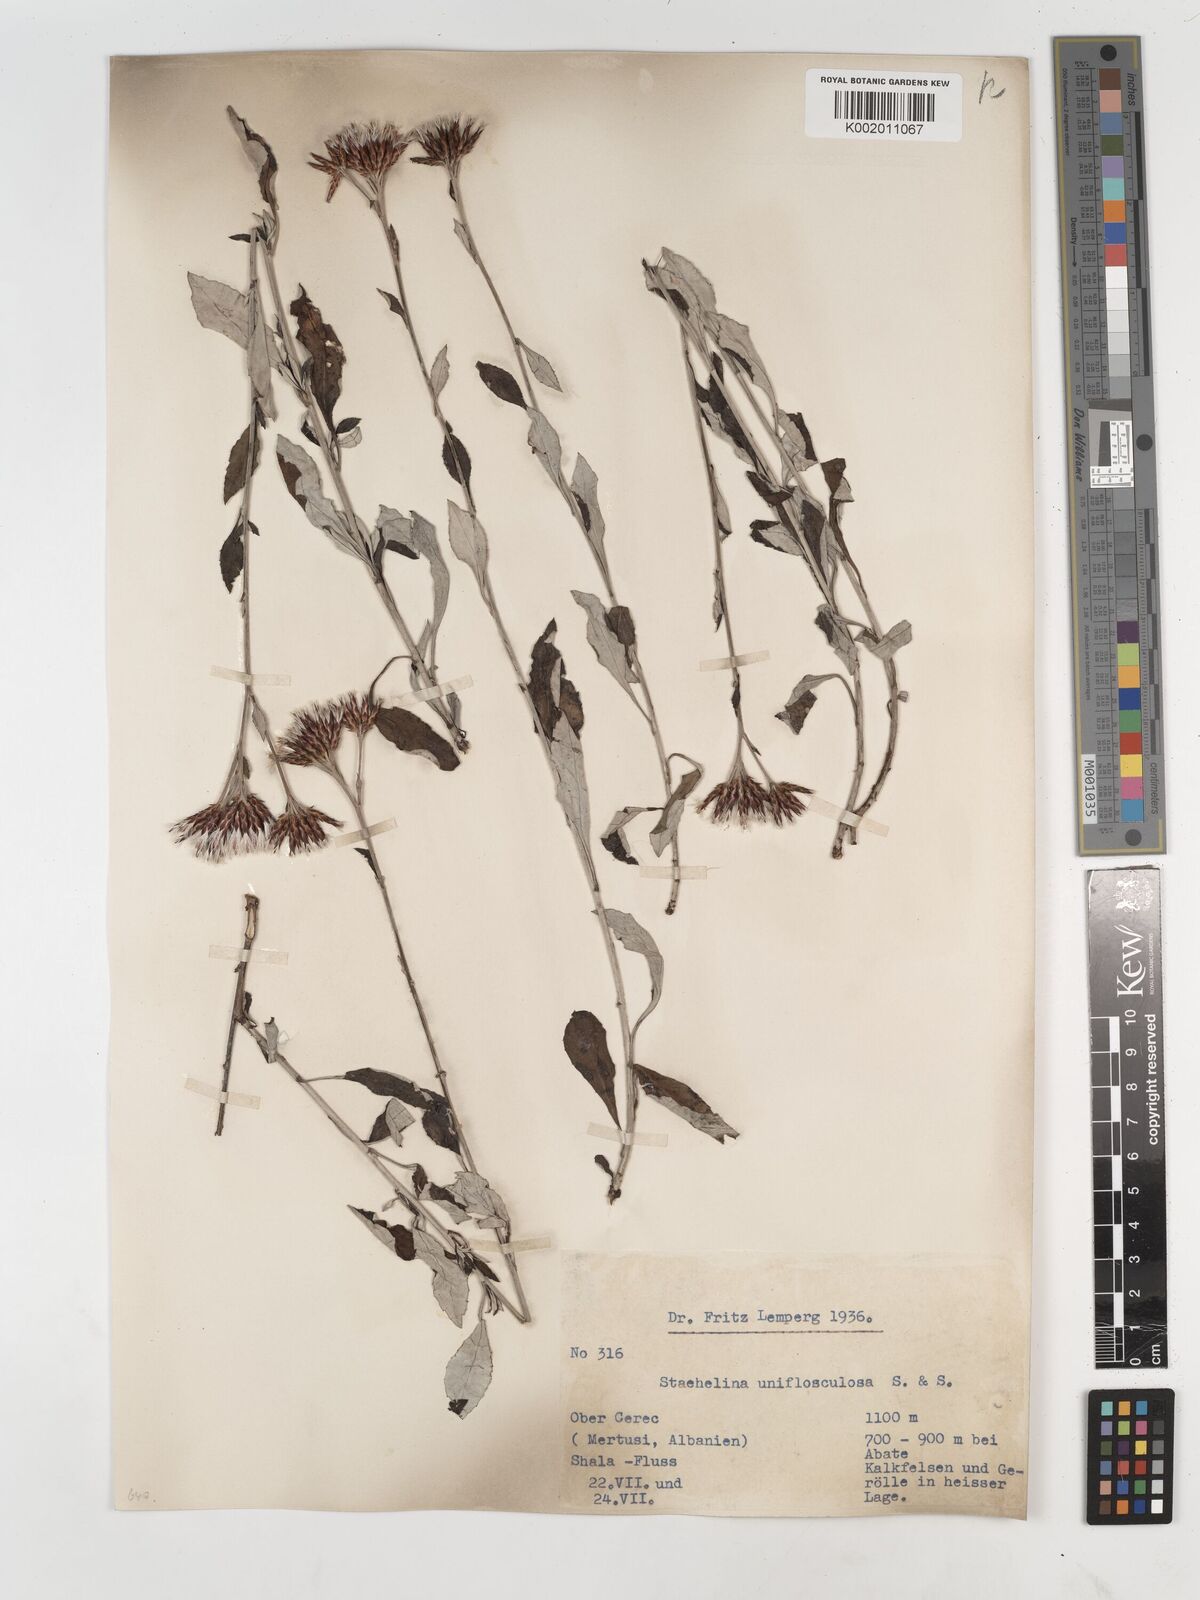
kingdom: Plantae
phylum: Tracheophyta
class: Magnoliopsida
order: Asterales
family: Asteraceae
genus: Staehelina
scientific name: Staehelina uniflosculosa
